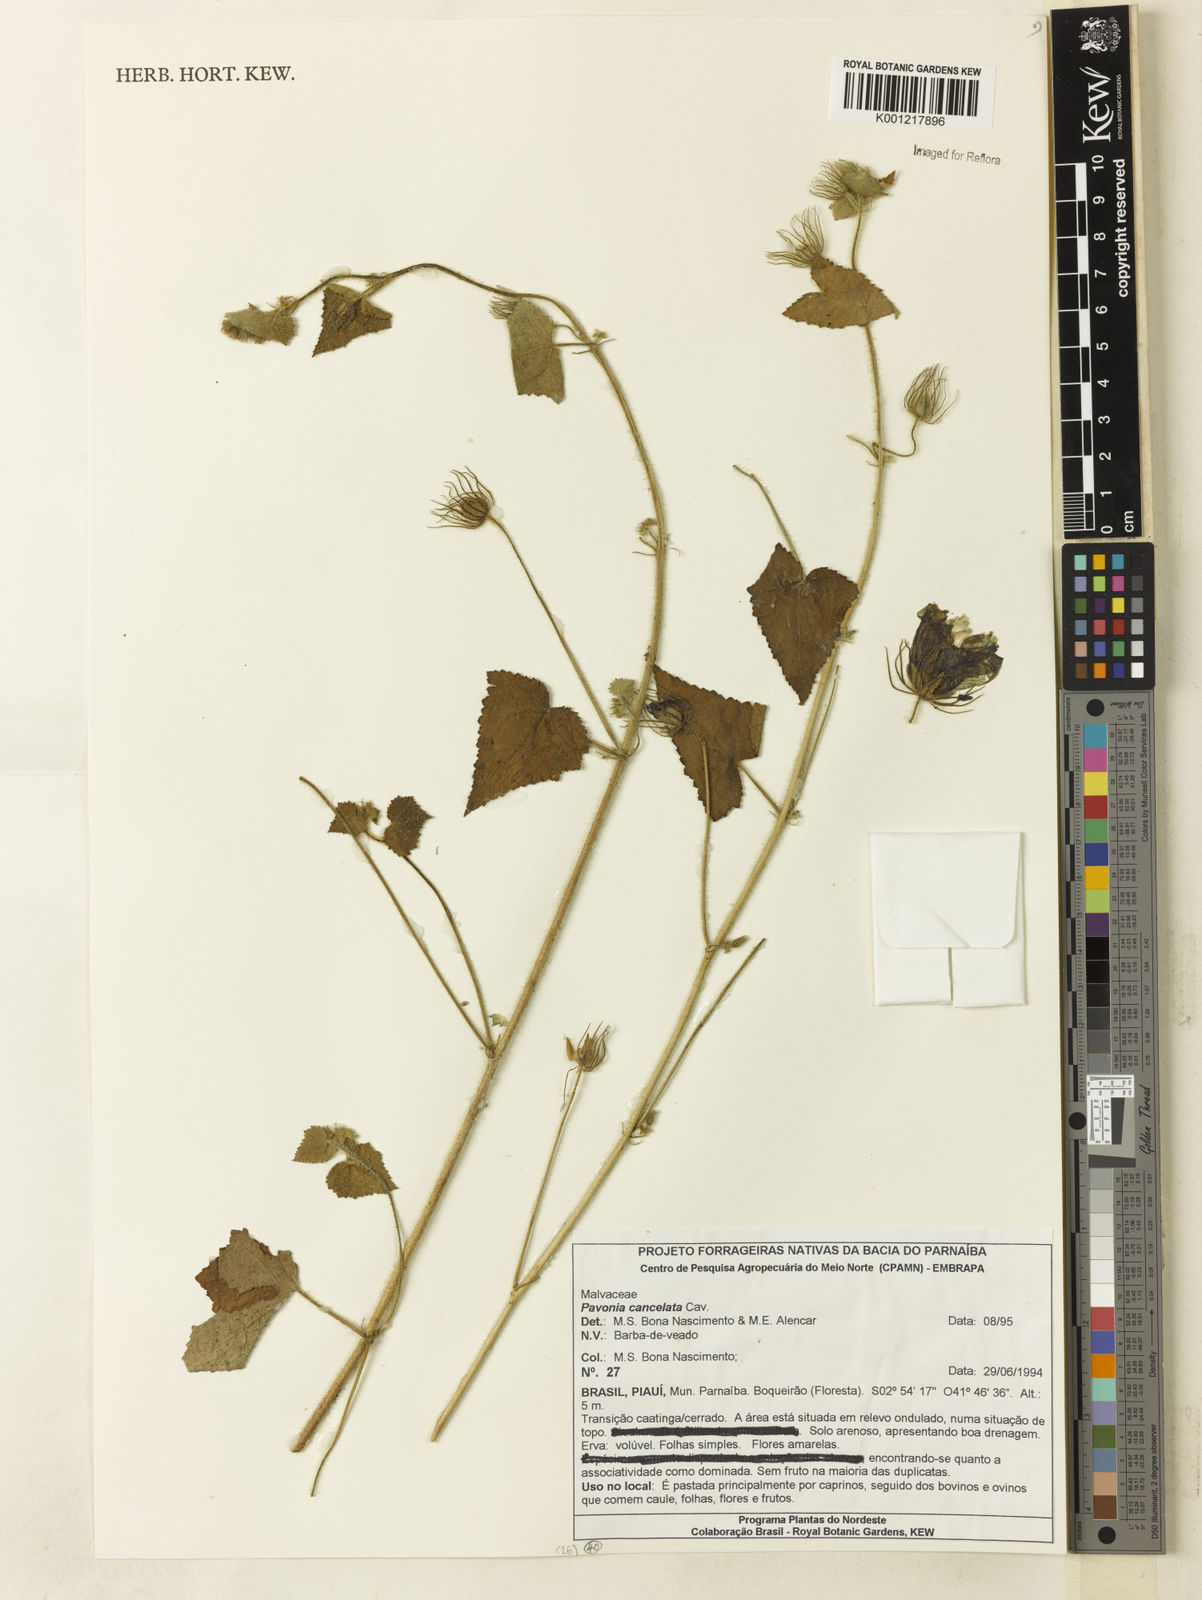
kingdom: Plantae
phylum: Tracheophyta
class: Magnoliopsida
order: Malvales
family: Malvaceae
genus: Pavonia
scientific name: Pavonia cancellata
